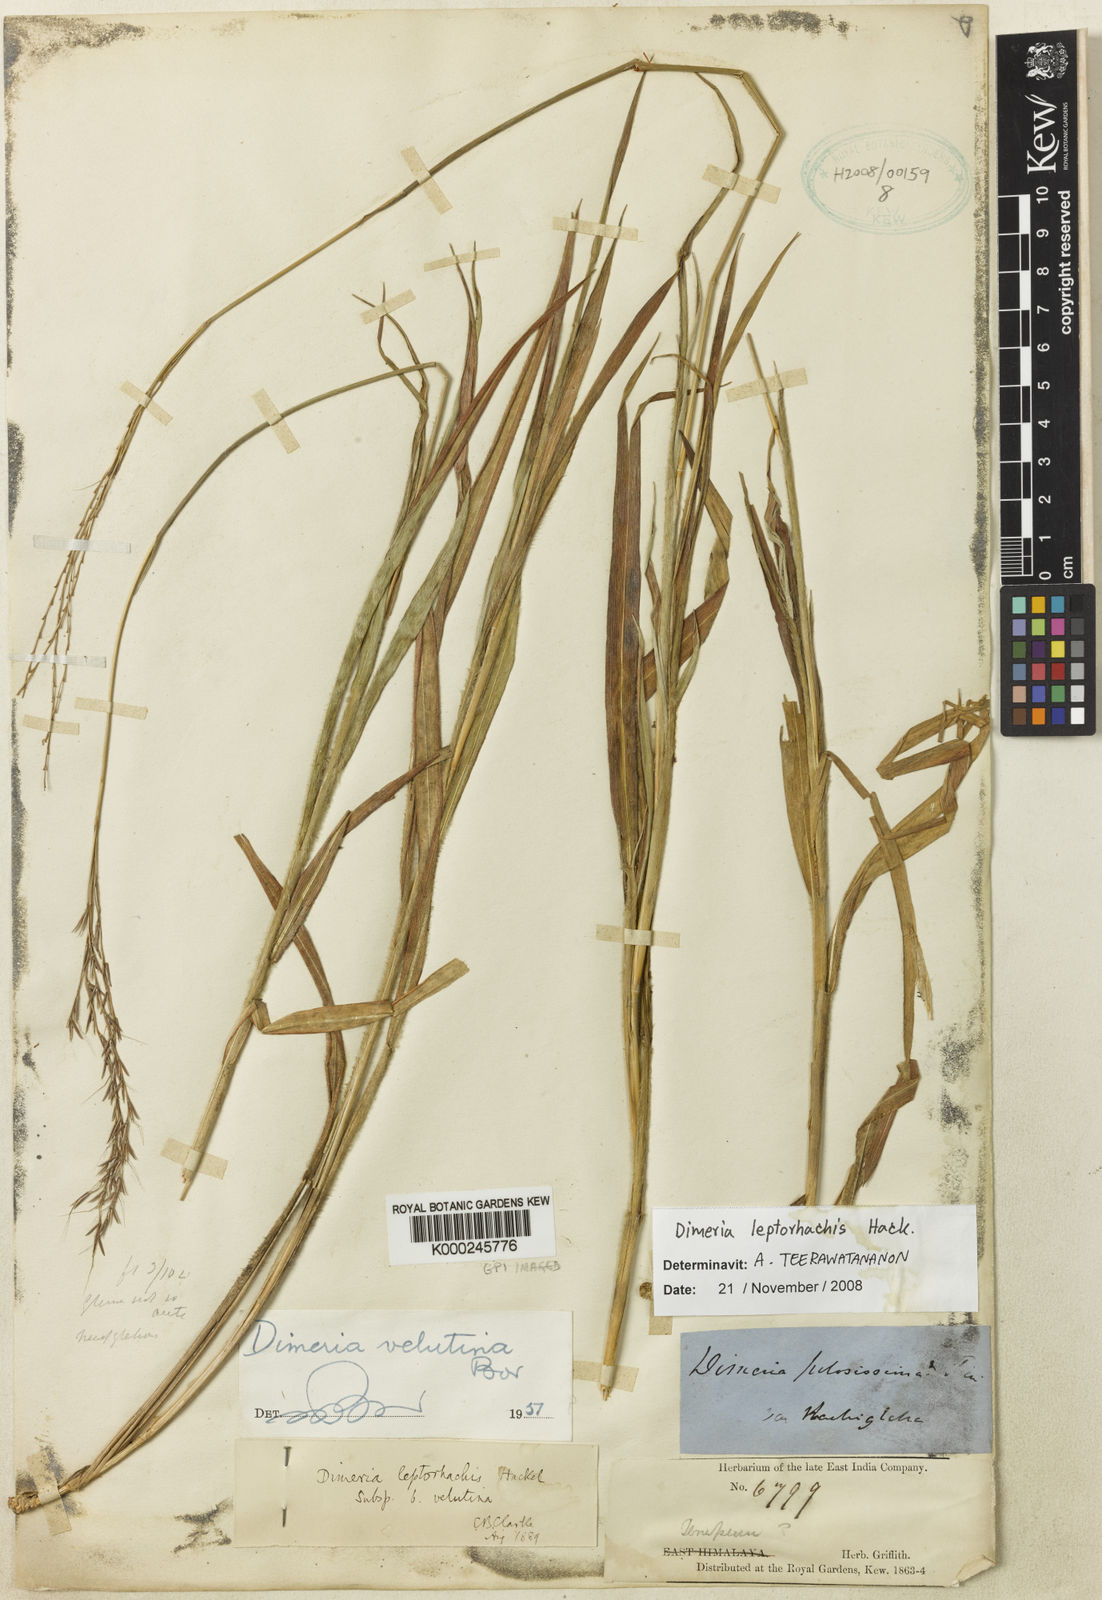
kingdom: Plantae
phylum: Tracheophyta
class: Liliopsida
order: Poales
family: Poaceae
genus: Dimeria
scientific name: Dimeria gracilis
